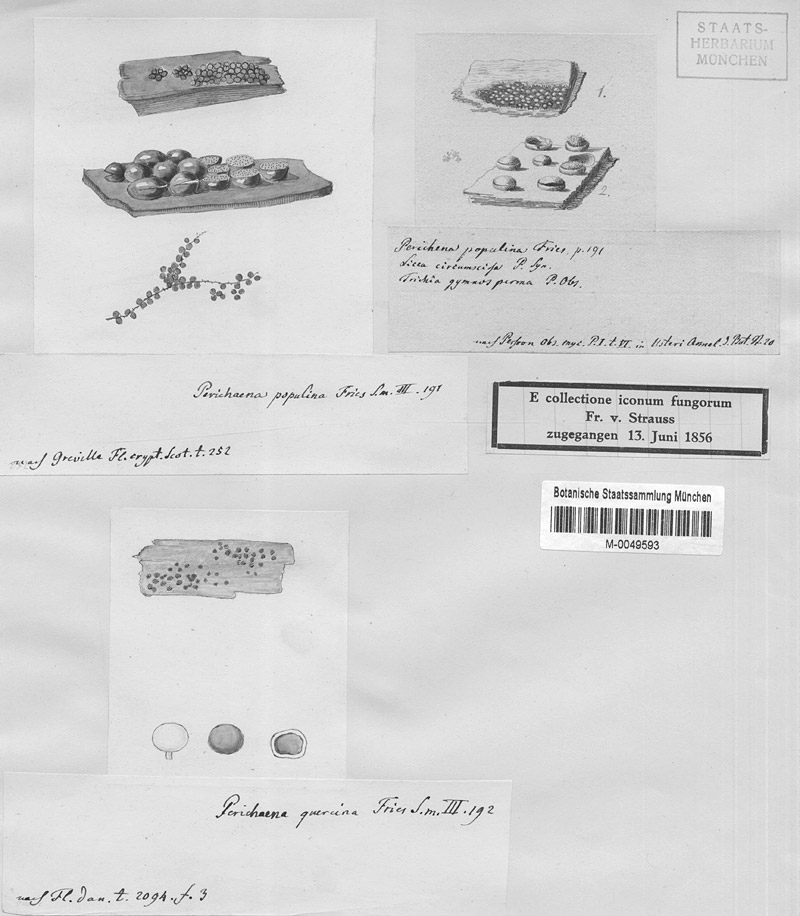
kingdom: Protozoa
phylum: Mycetozoa
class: Myxomycetes
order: Trichiales
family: Trichiaceae
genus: Perichaena
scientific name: Perichaena corticalis
